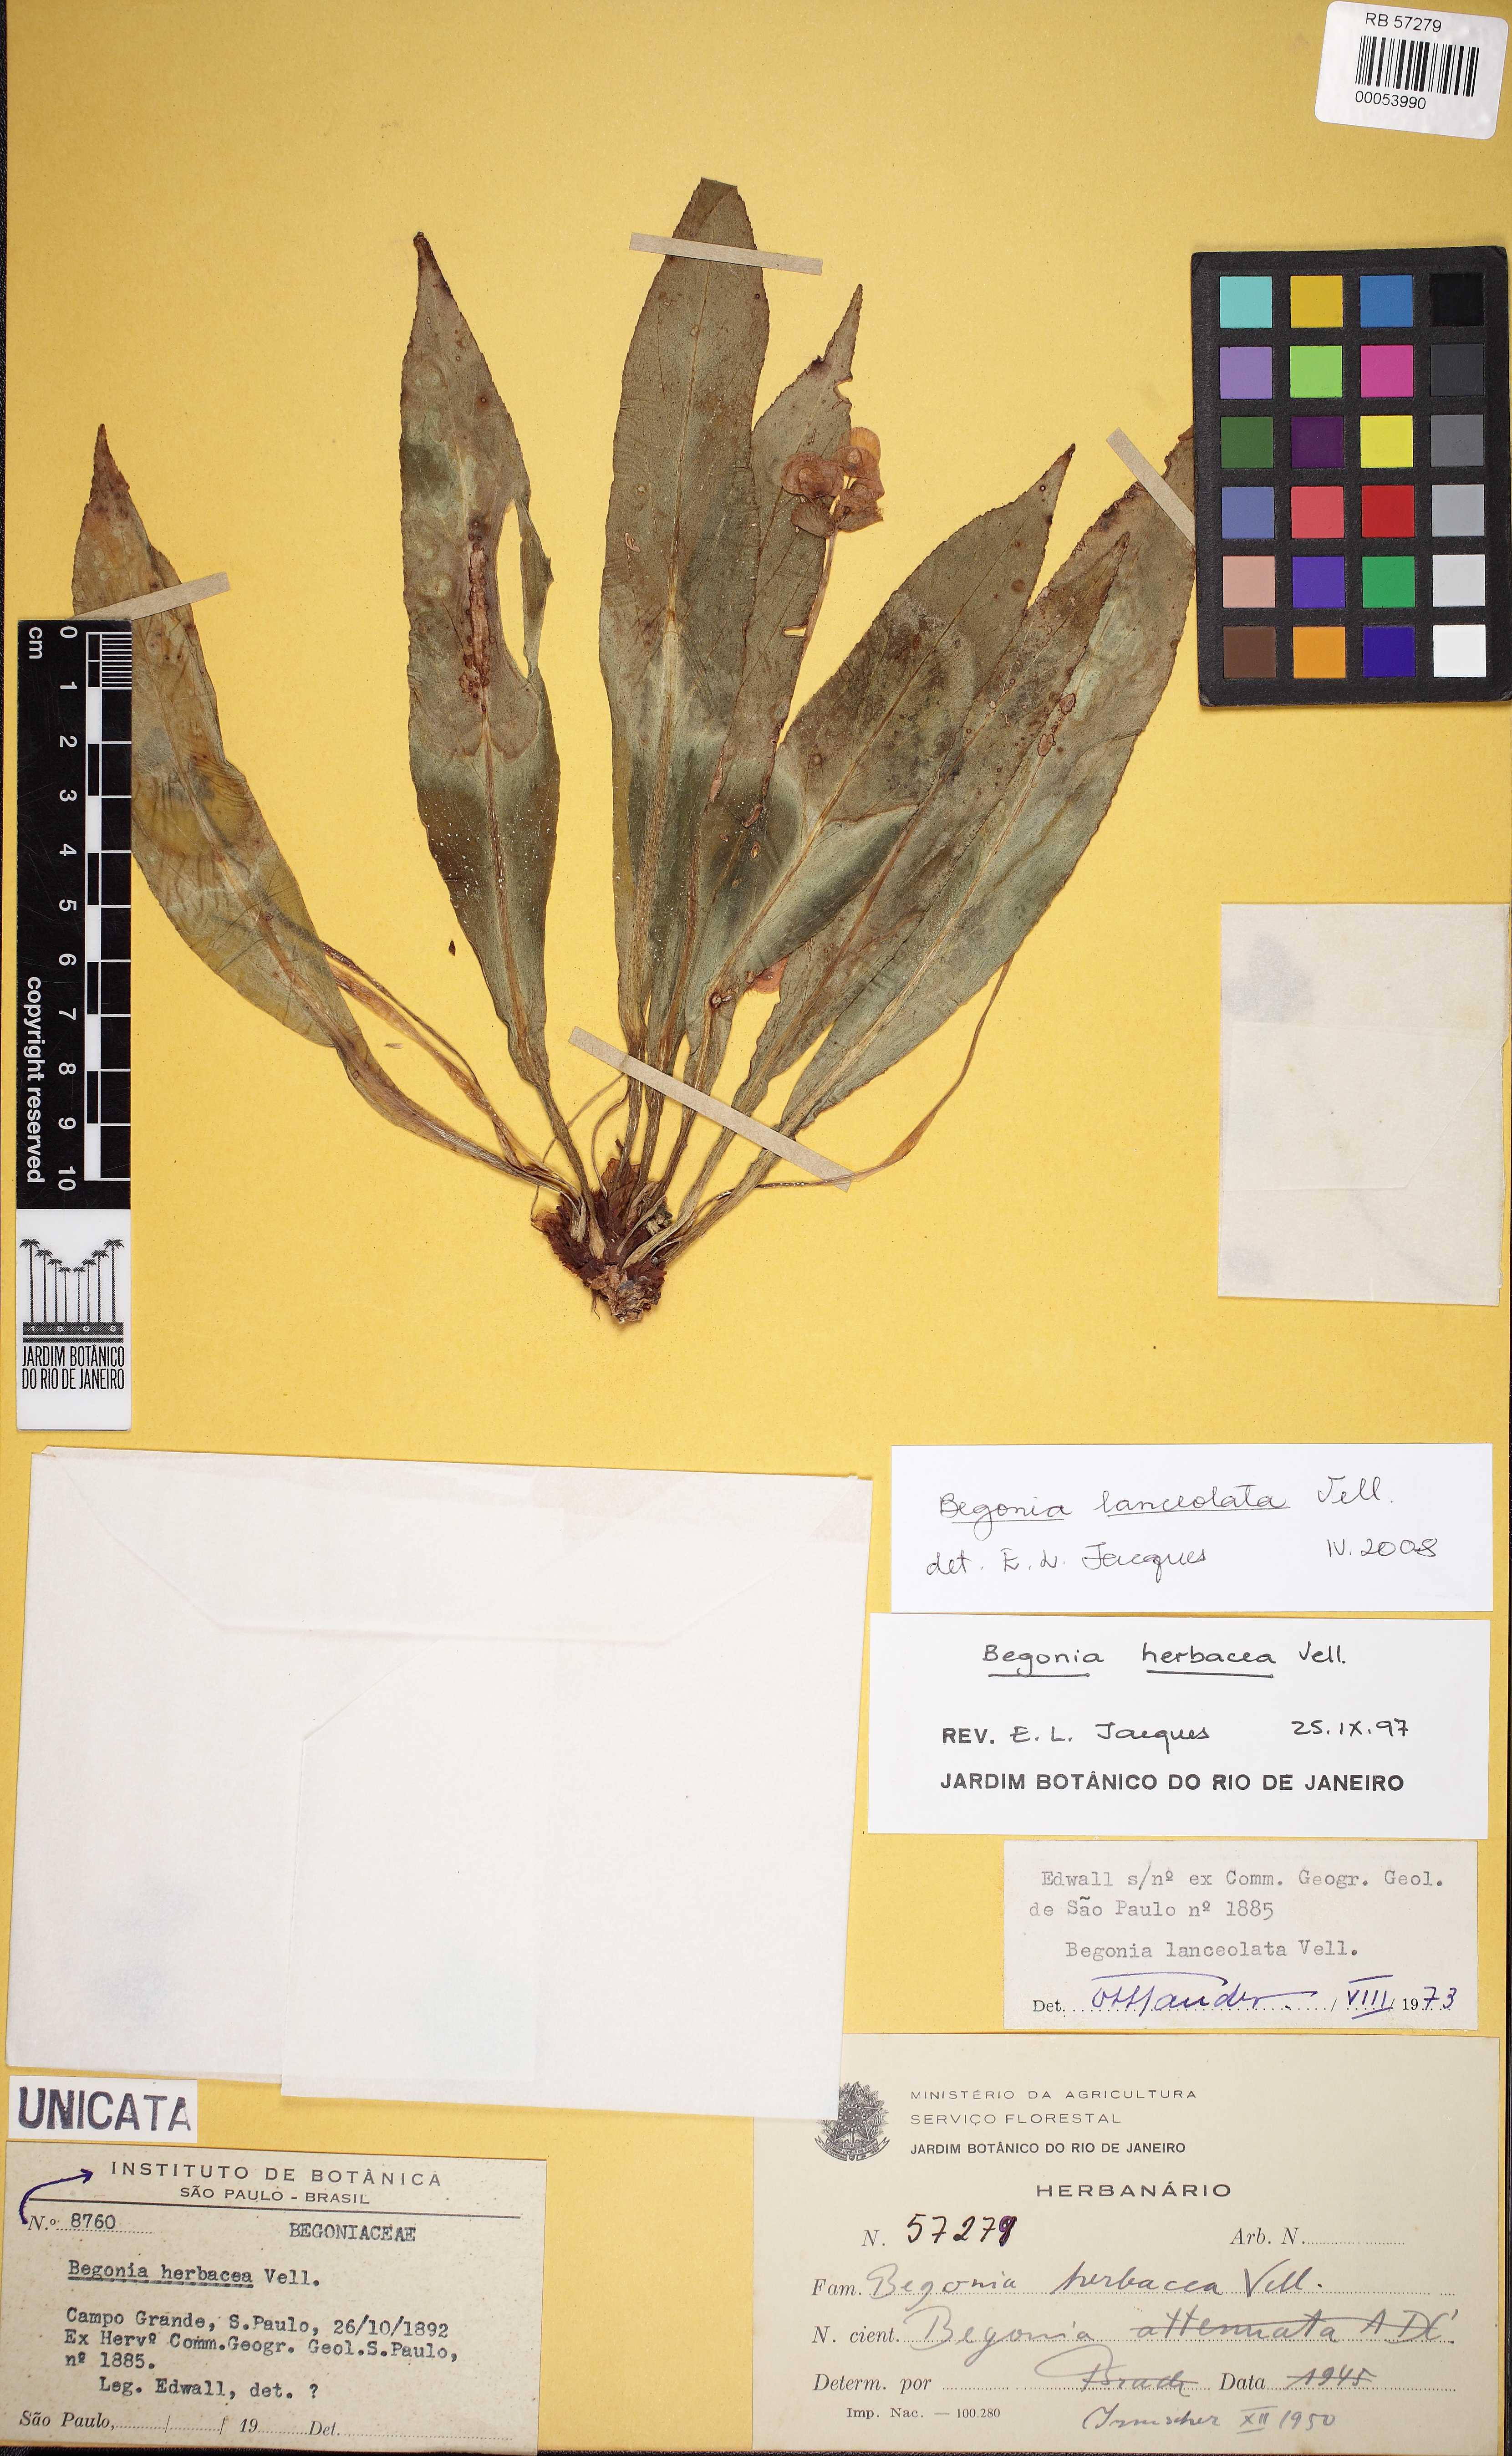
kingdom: Plantae
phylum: Tracheophyta
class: Magnoliopsida
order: Cucurbitales
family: Begoniaceae
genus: Begonia
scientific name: Begonia lanceolata
